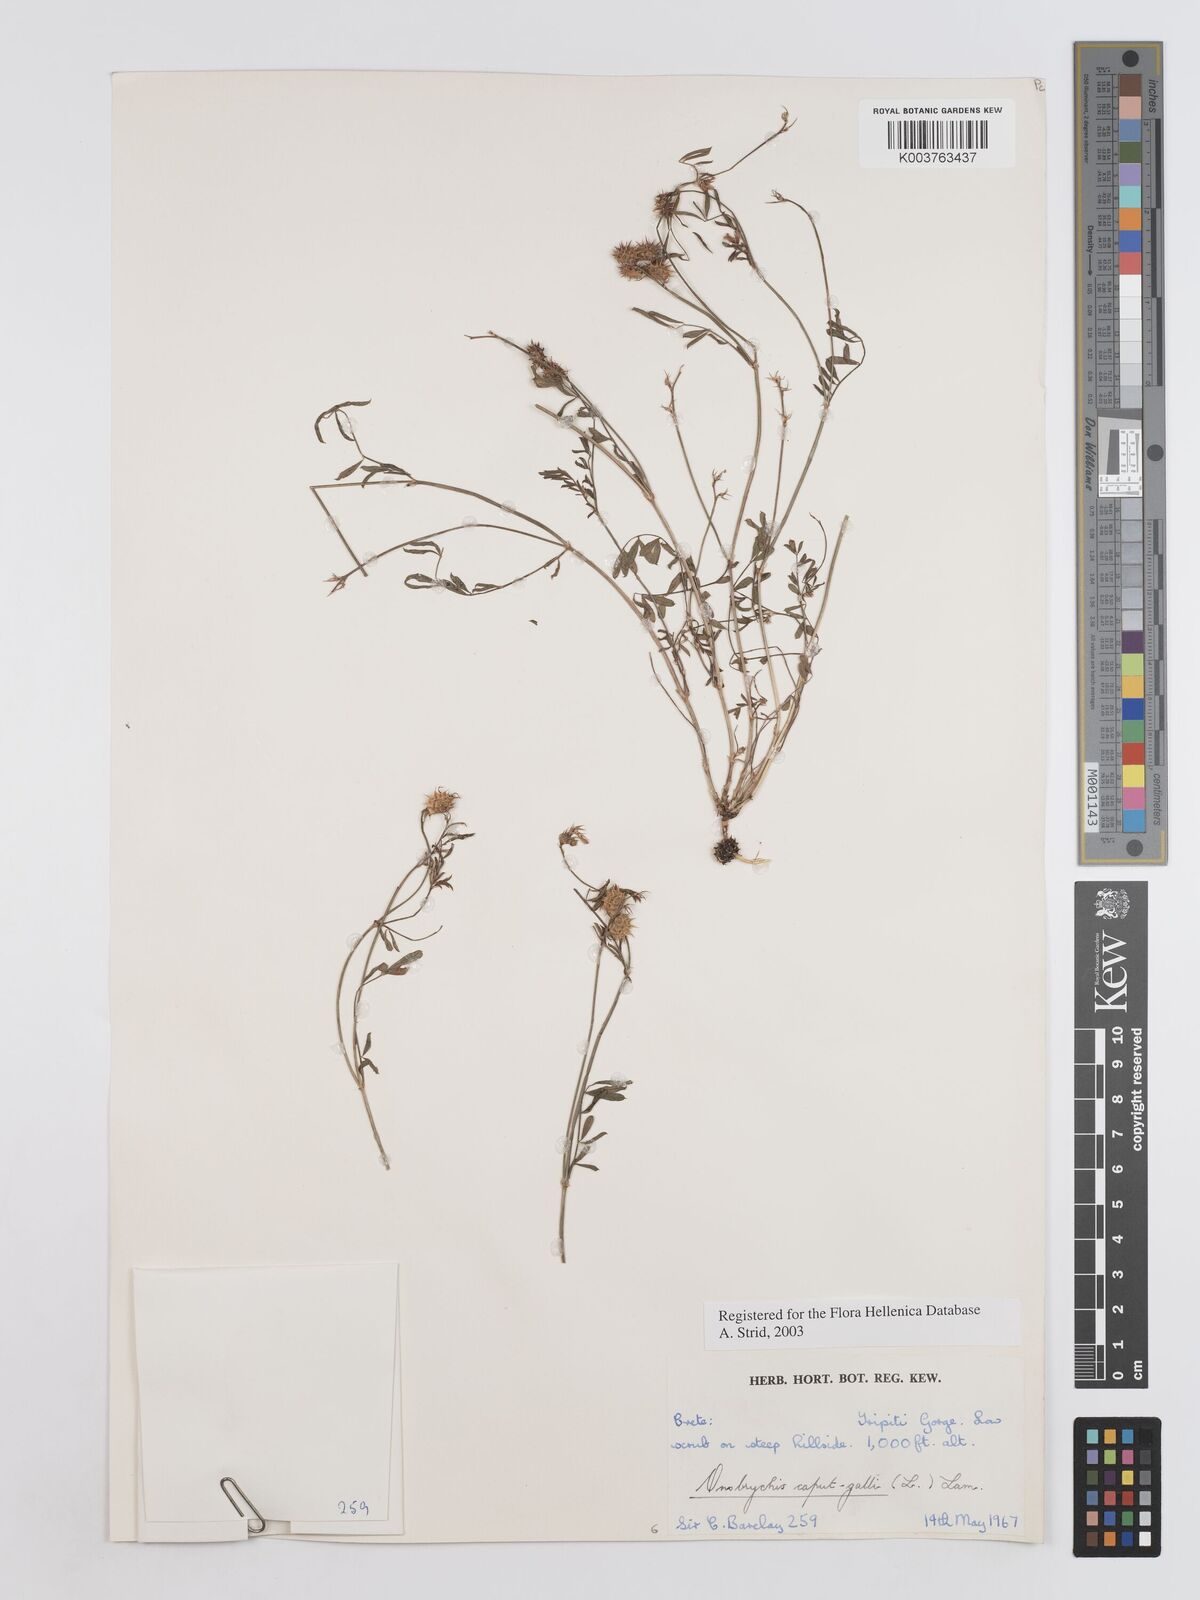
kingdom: Plantae
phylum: Tracheophyta
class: Magnoliopsida
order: Fabales
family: Fabaceae
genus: Onobrychis
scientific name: Onobrychis caput-galli
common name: Cockscomb sainfoin
